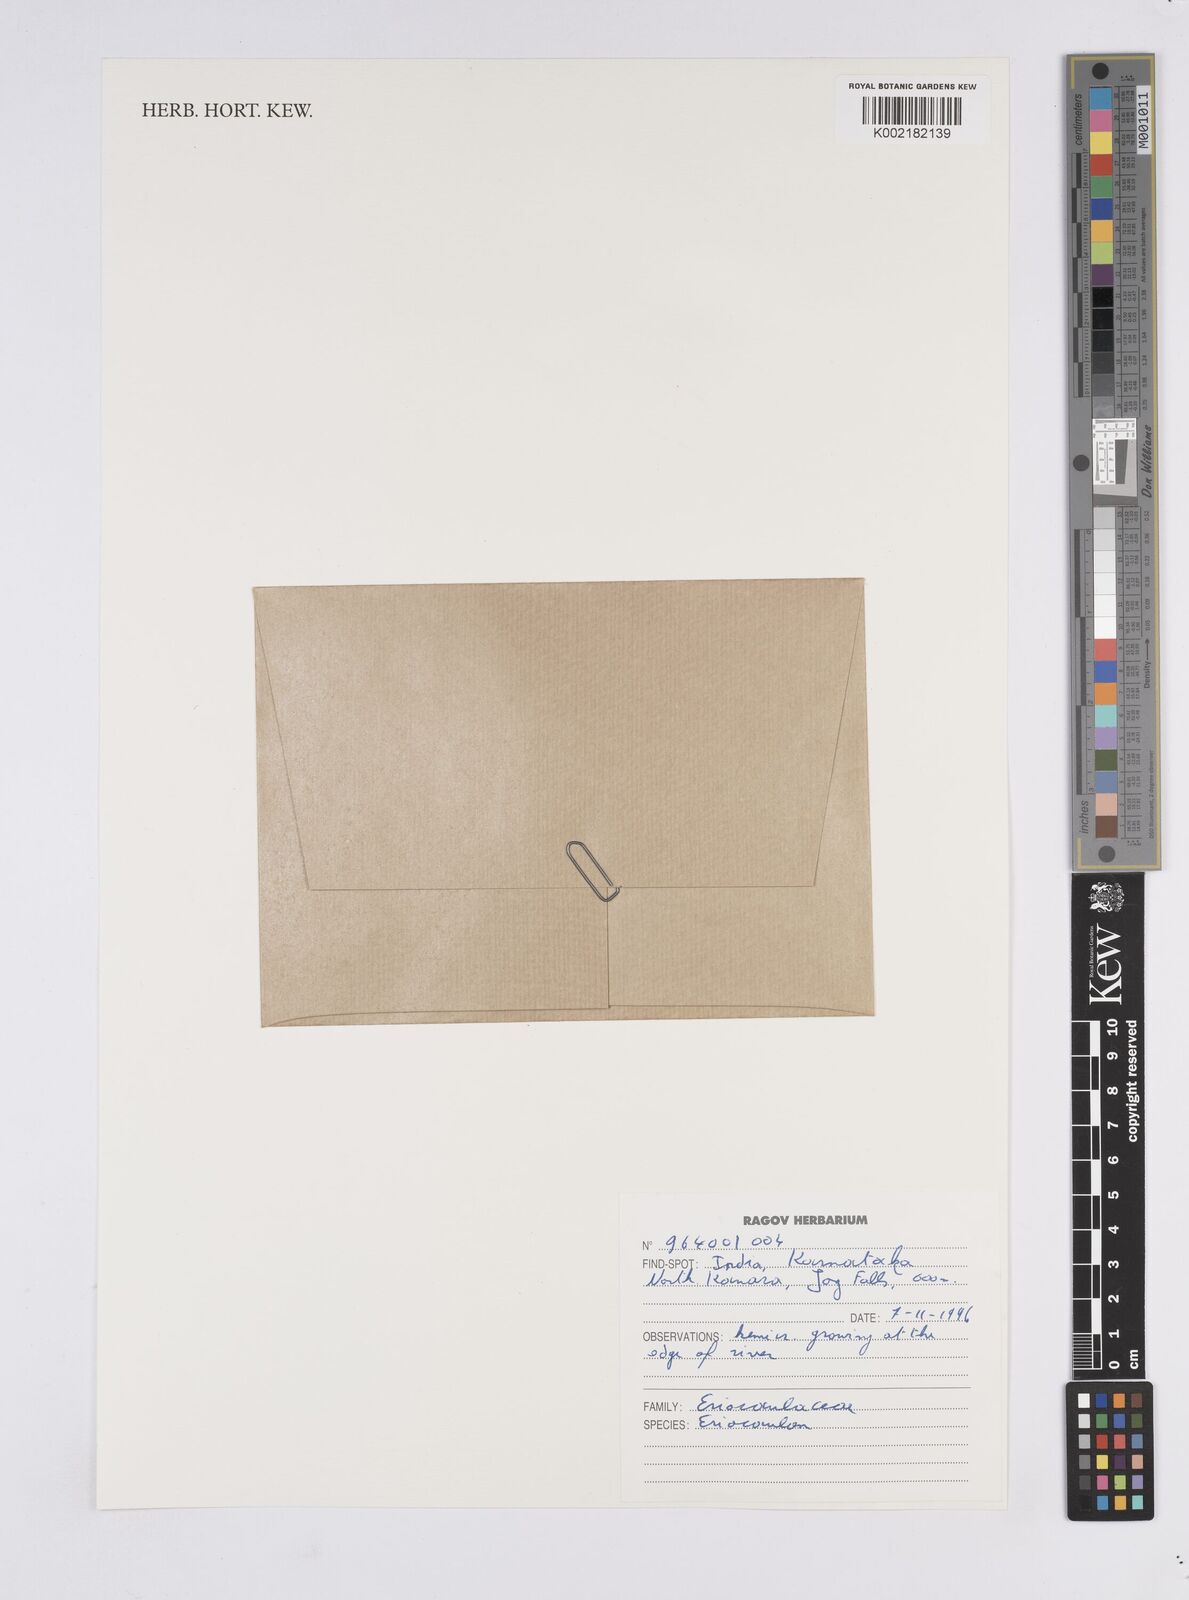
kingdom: Plantae
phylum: Tracheophyta
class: Liliopsida
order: Poales
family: Eriocaulaceae
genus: Eriocaulon
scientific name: Eriocaulon
